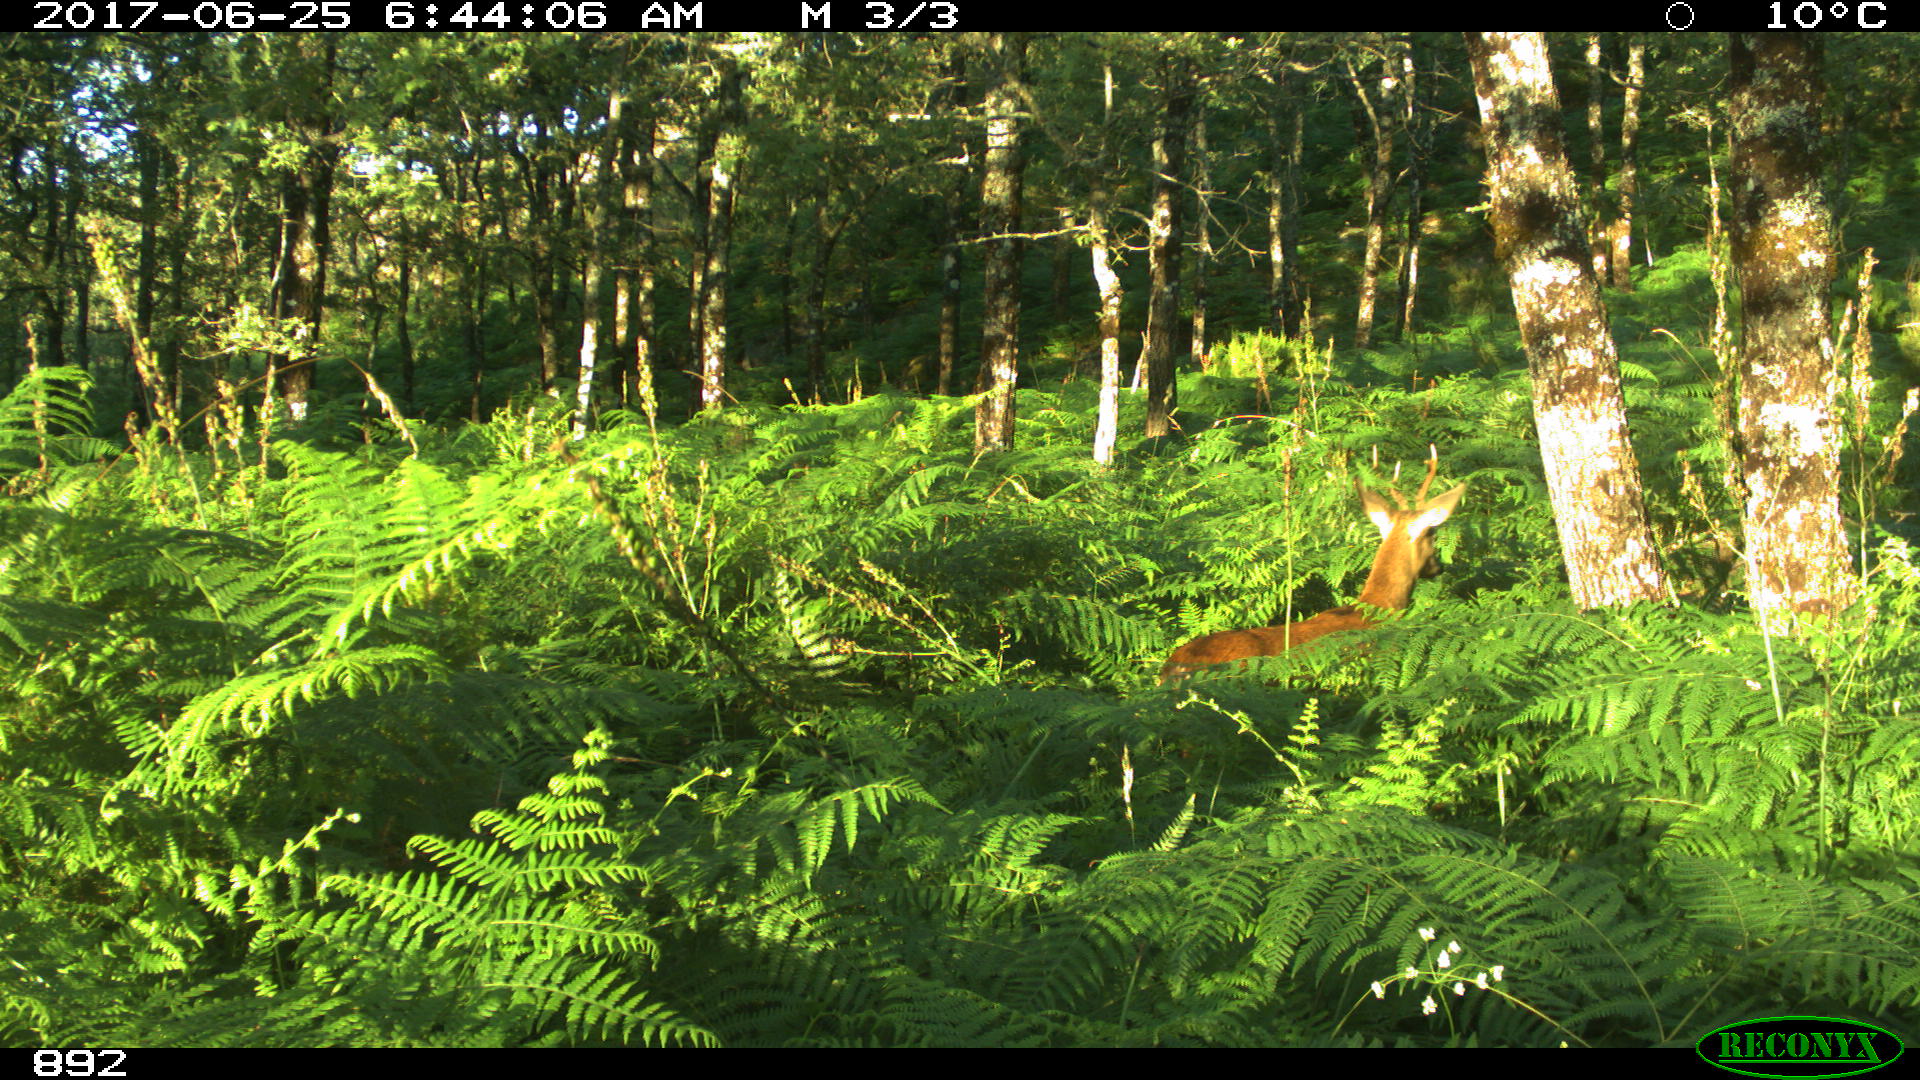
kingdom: Animalia
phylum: Chordata
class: Mammalia
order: Artiodactyla
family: Cervidae
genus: Capreolus
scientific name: Capreolus capreolus
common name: Western roe deer
